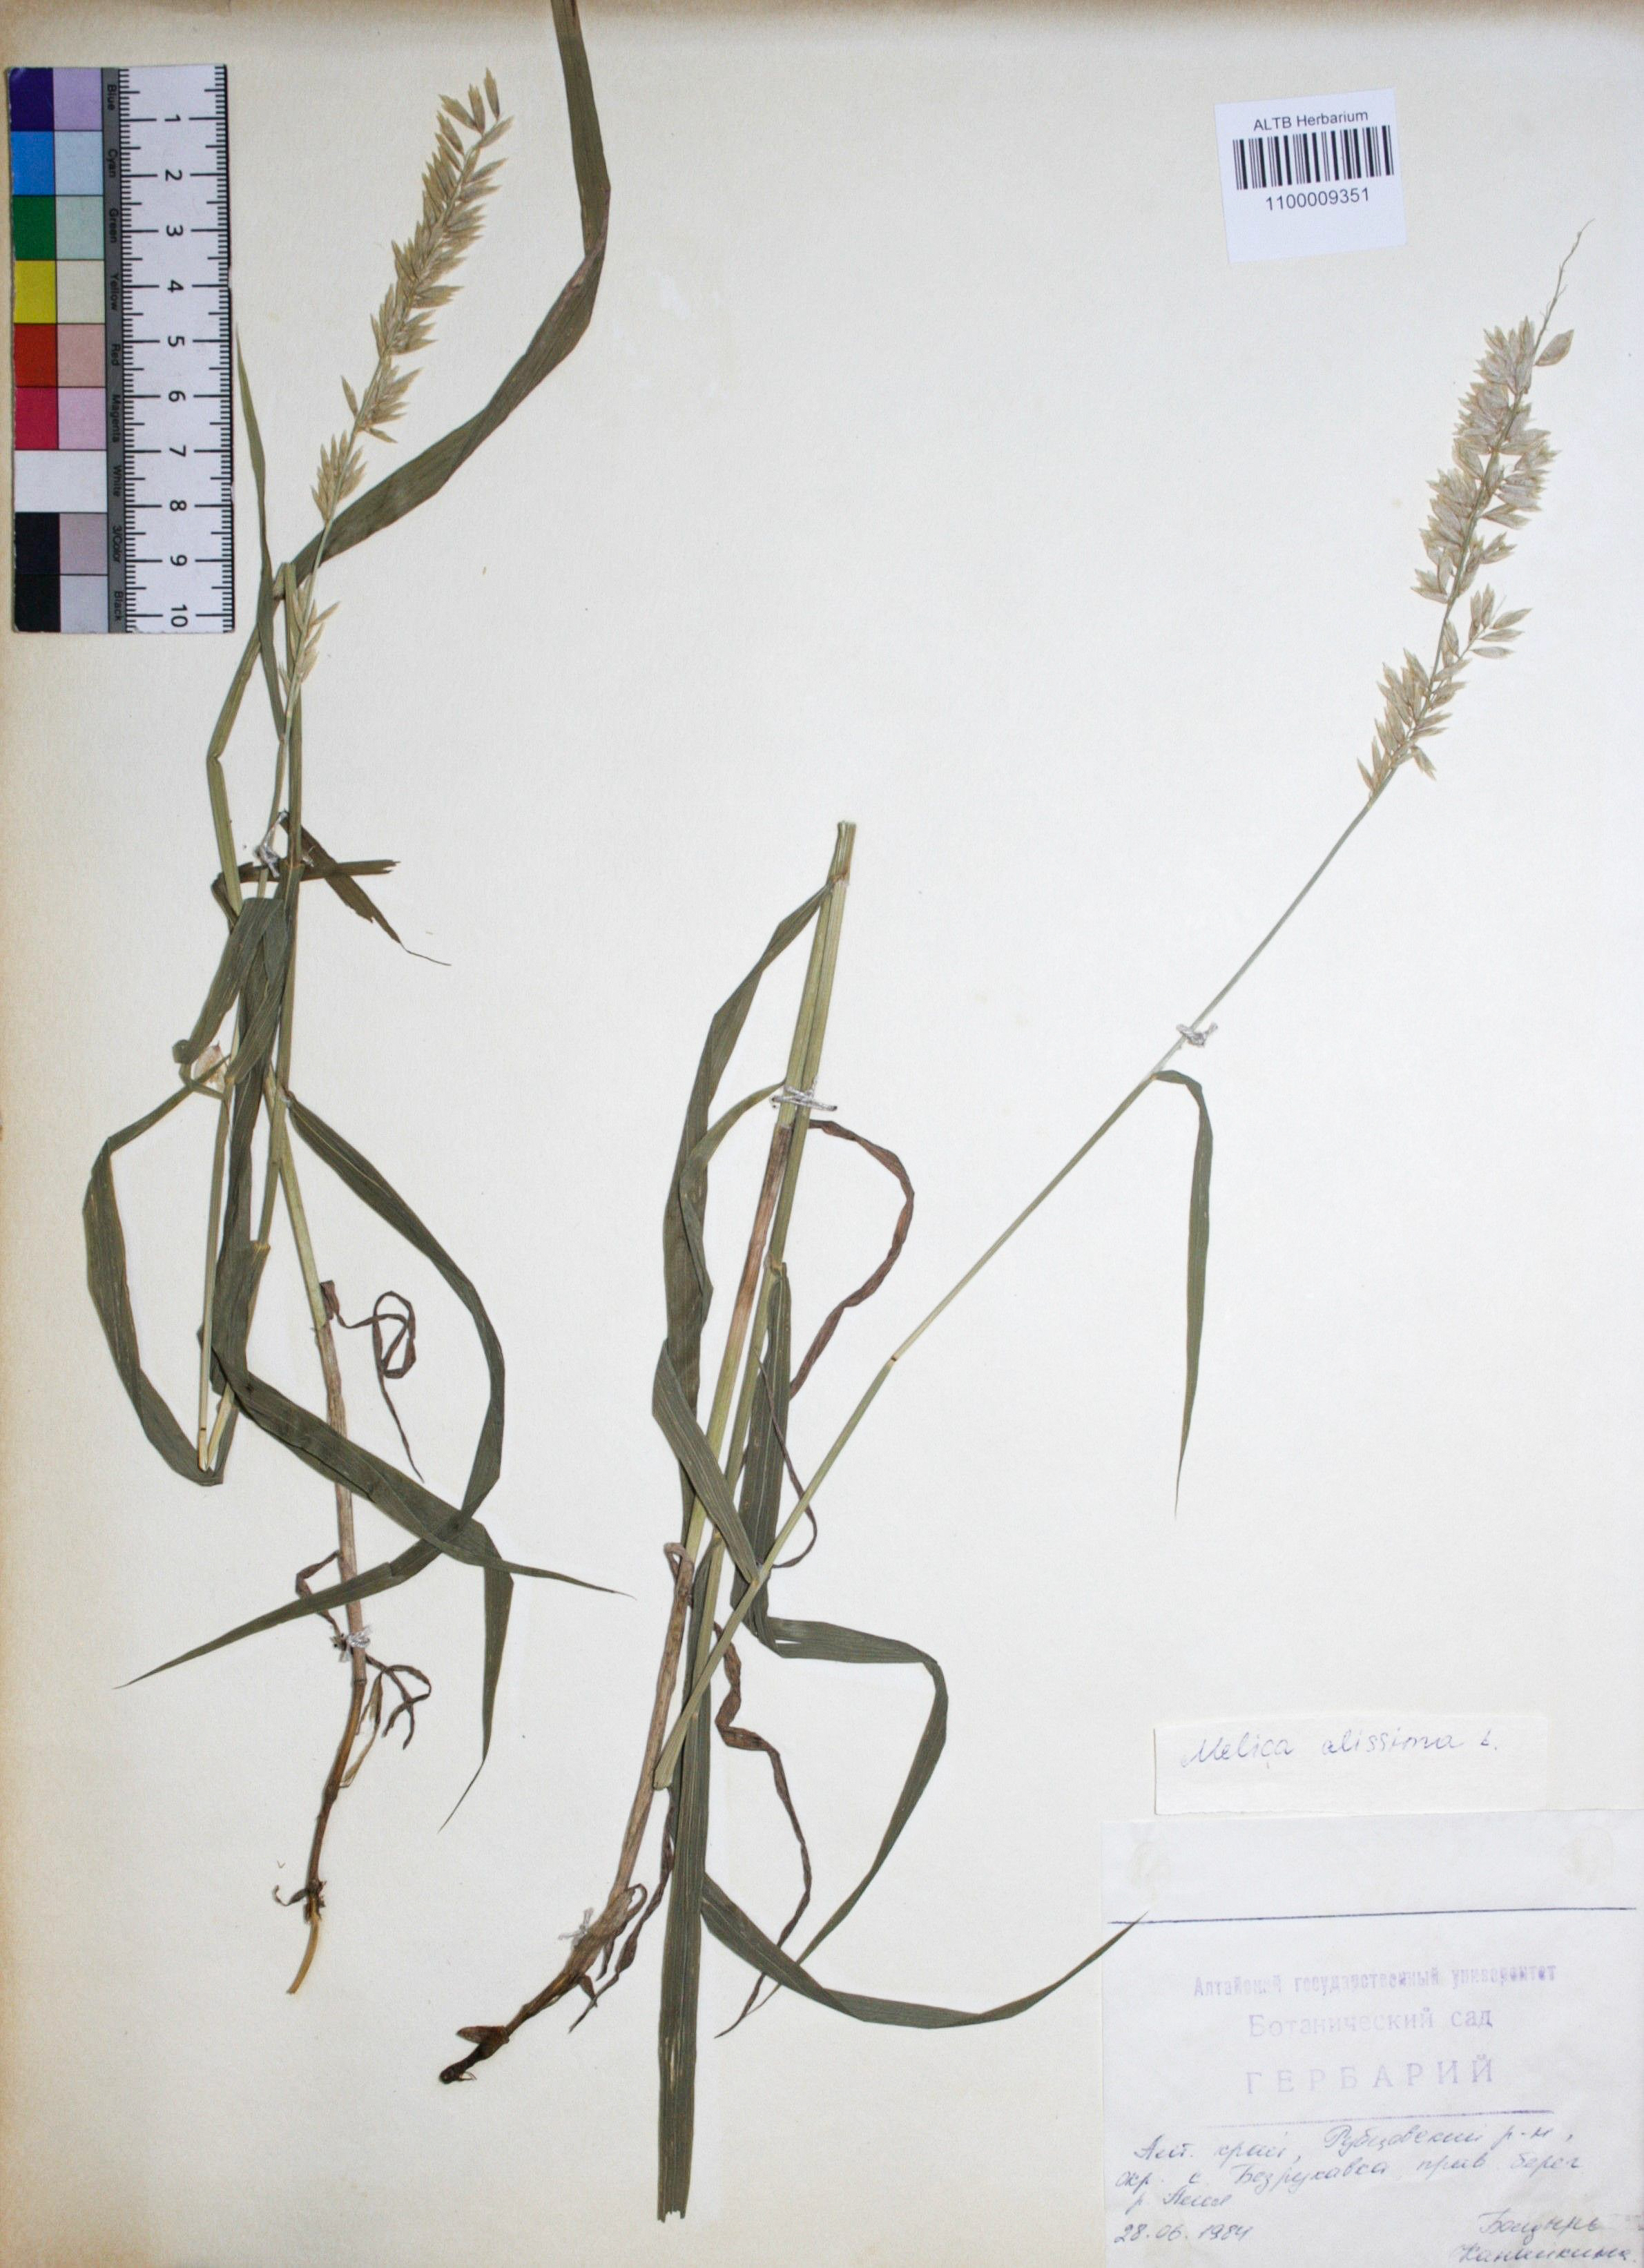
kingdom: Plantae
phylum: Tracheophyta
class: Liliopsida
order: Poales
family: Poaceae
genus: Melica
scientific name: Melica altissima
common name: Siberian melicgrass
